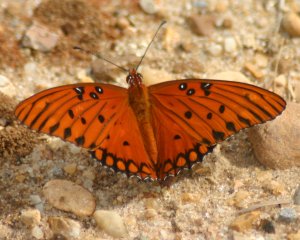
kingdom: Animalia
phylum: Arthropoda
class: Insecta
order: Lepidoptera
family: Nymphalidae
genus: Dione
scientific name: Dione vanillae
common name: Gulf Fritillary
